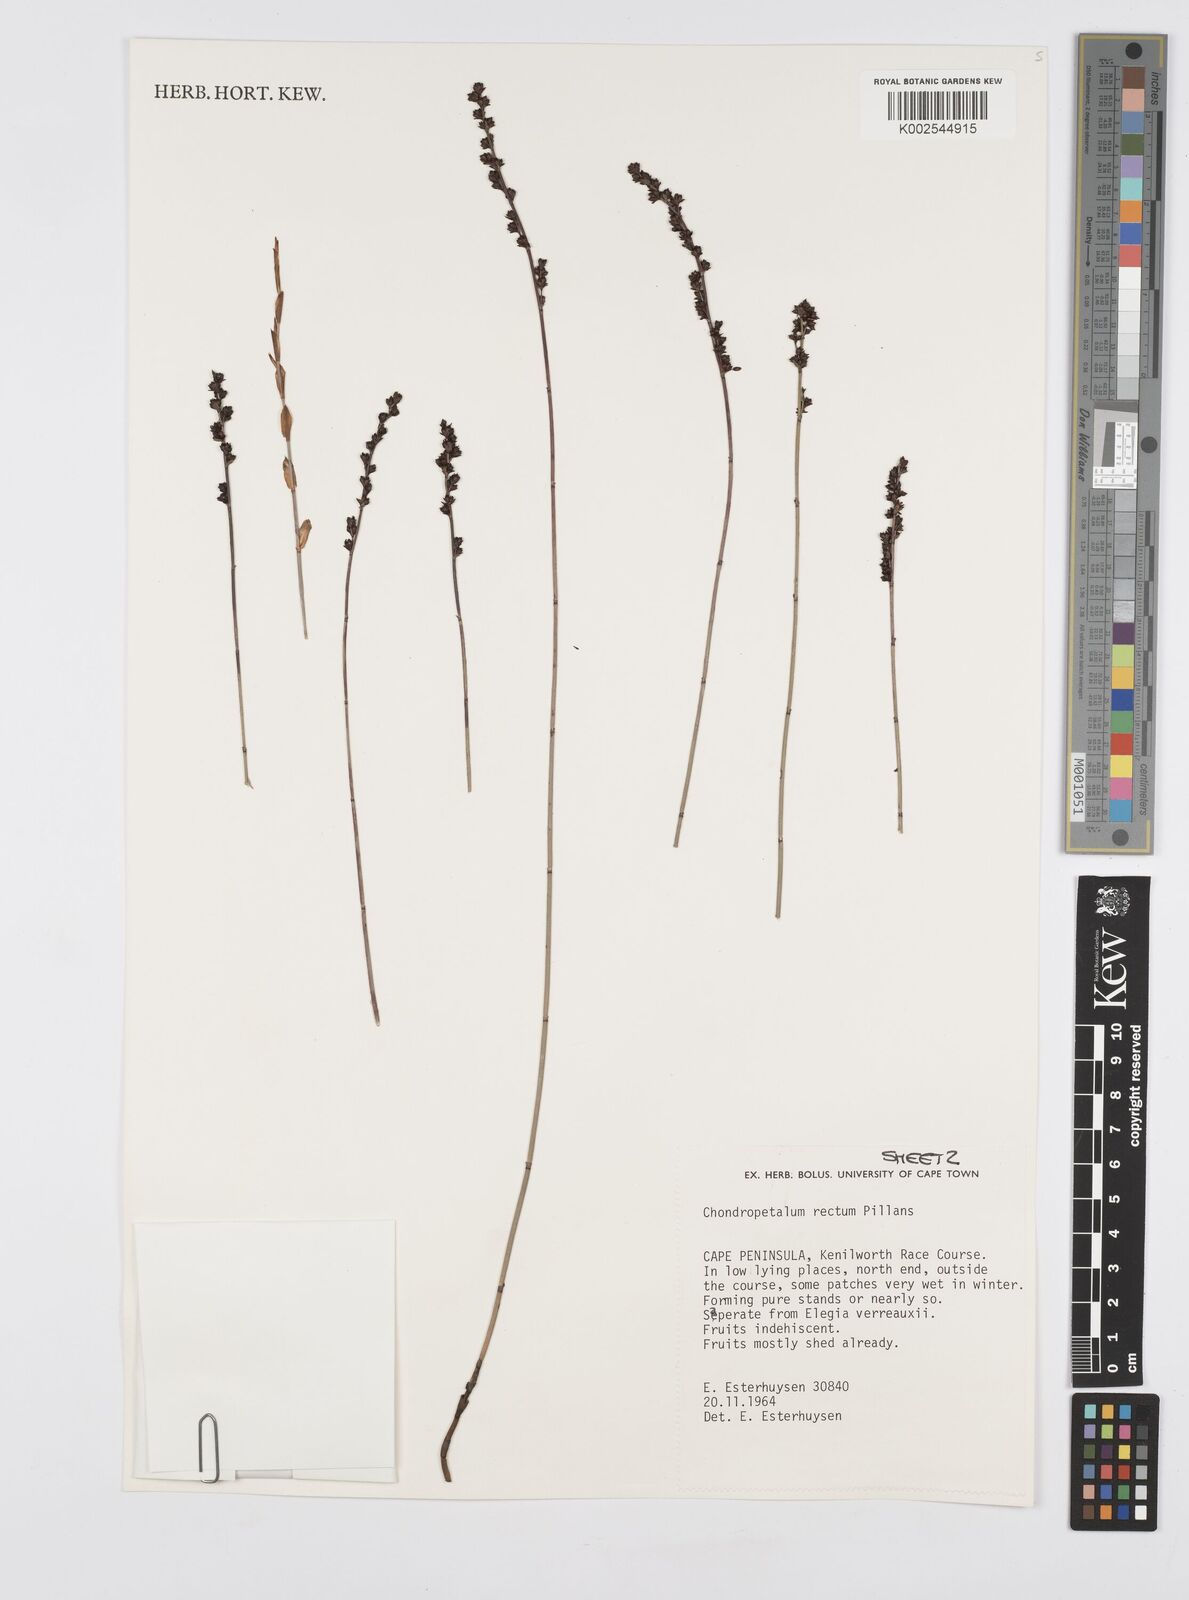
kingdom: Plantae
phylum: Tracheophyta
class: Liliopsida
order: Poales
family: Restionaceae
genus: Elegia
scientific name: Elegia recta
